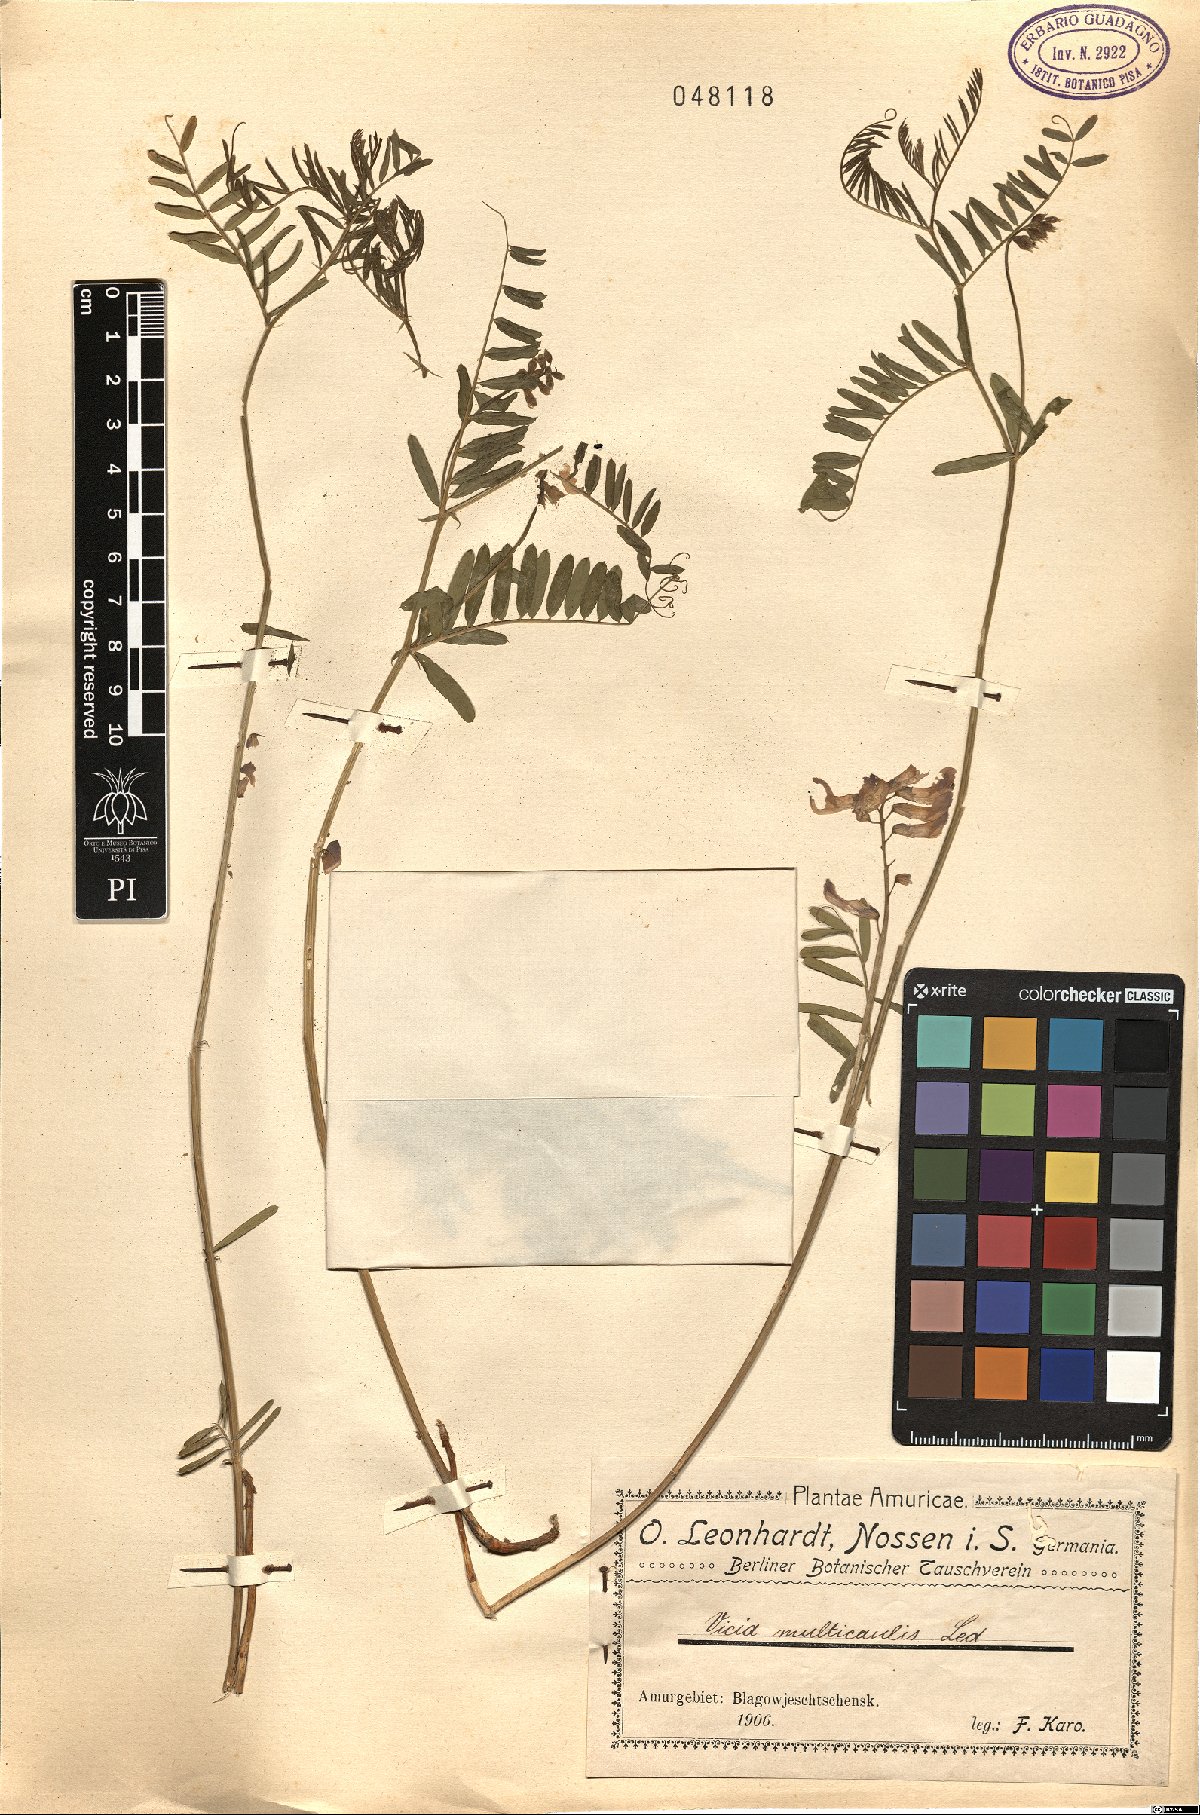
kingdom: Plantae
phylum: Tracheophyta
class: Magnoliopsida
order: Fabales
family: Fabaceae
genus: Vicia
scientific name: Vicia multicaulis
